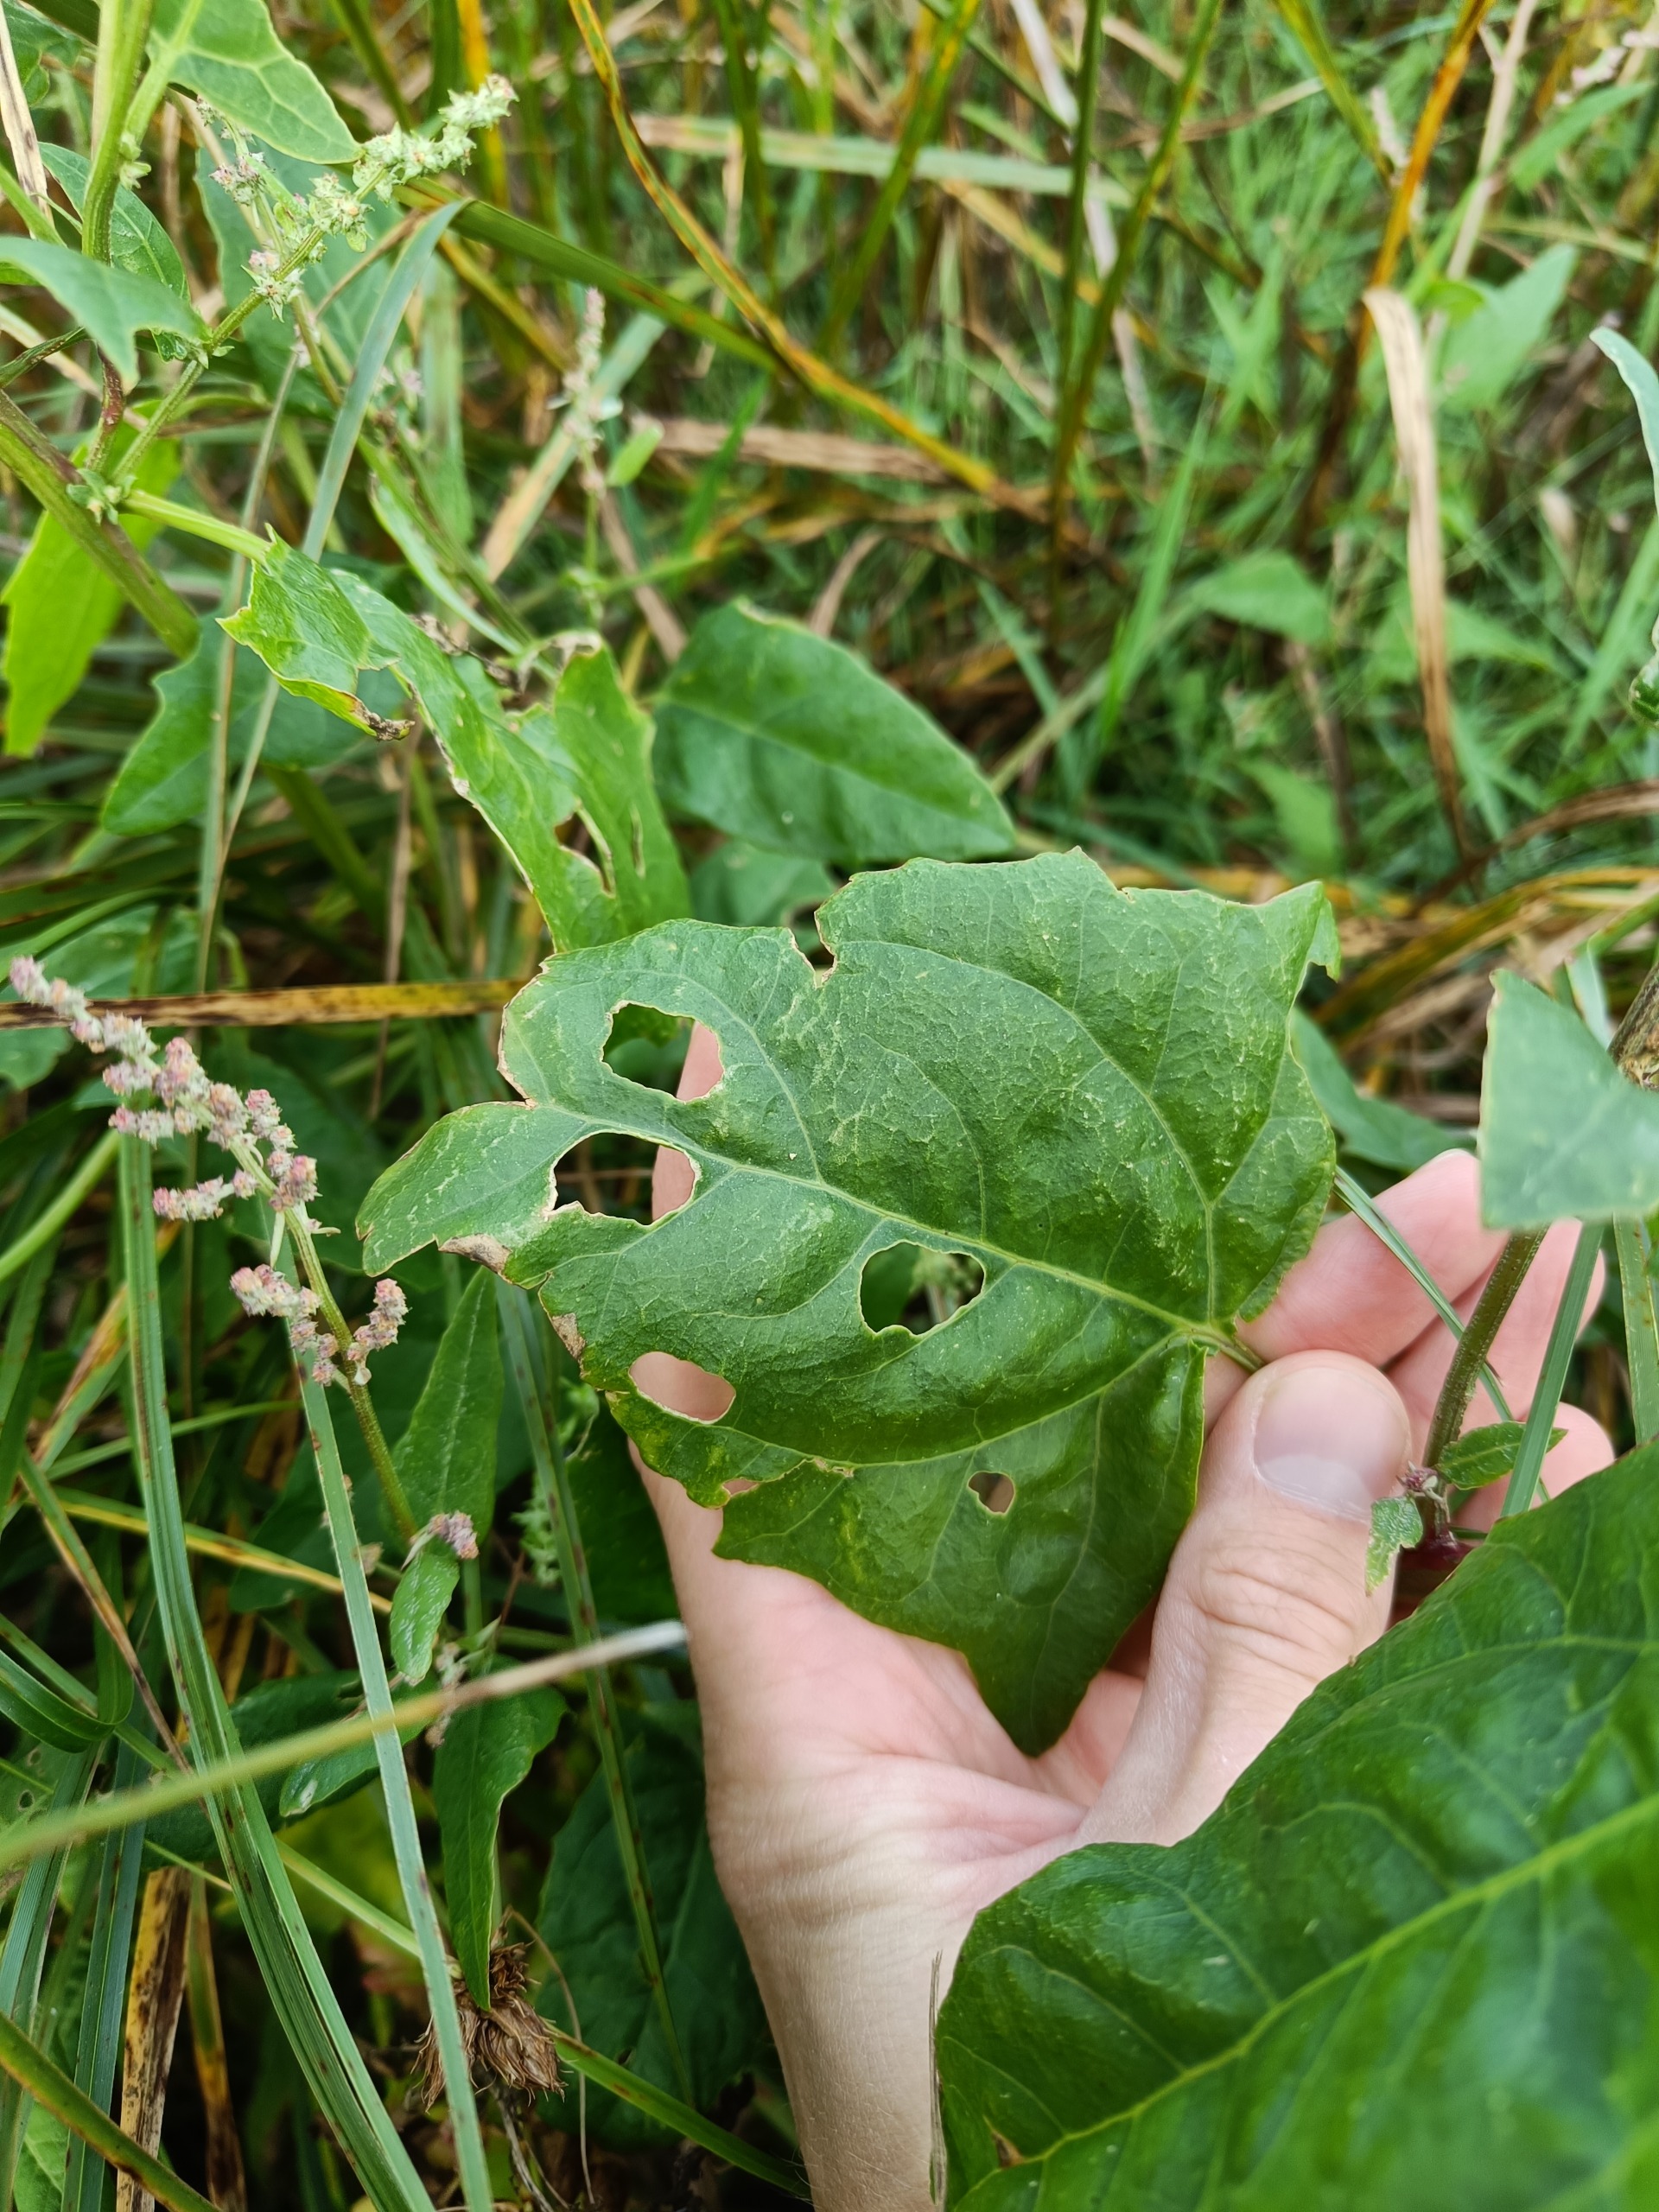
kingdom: Plantae
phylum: Tracheophyta
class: Magnoliopsida
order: Caryophyllales
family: Amaranthaceae
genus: Atriplex
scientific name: Atriplex prostrata
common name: Spyd-mælde
